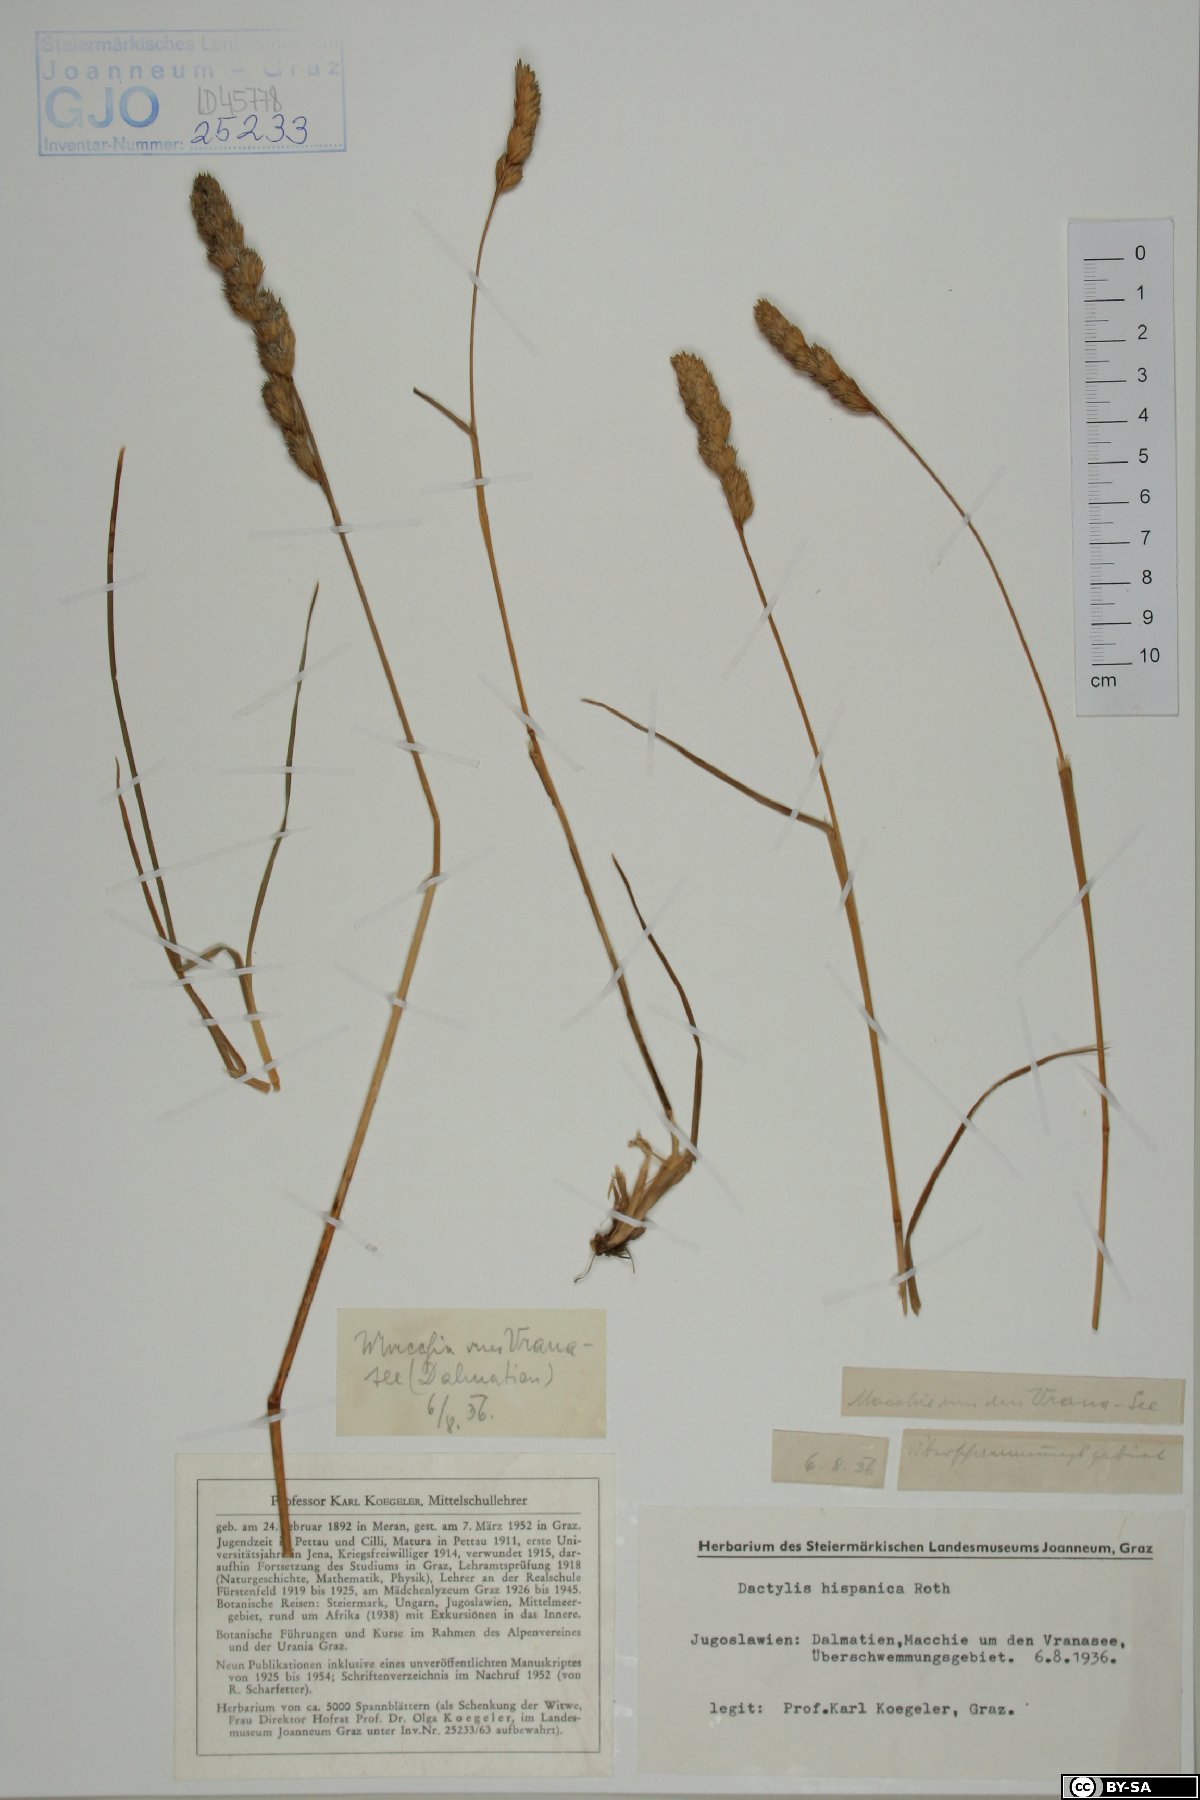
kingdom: Plantae
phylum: Tracheophyta
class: Liliopsida
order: Poales
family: Poaceae
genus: Dactylis
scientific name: Dactylis glomerata
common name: Orchardgrass
